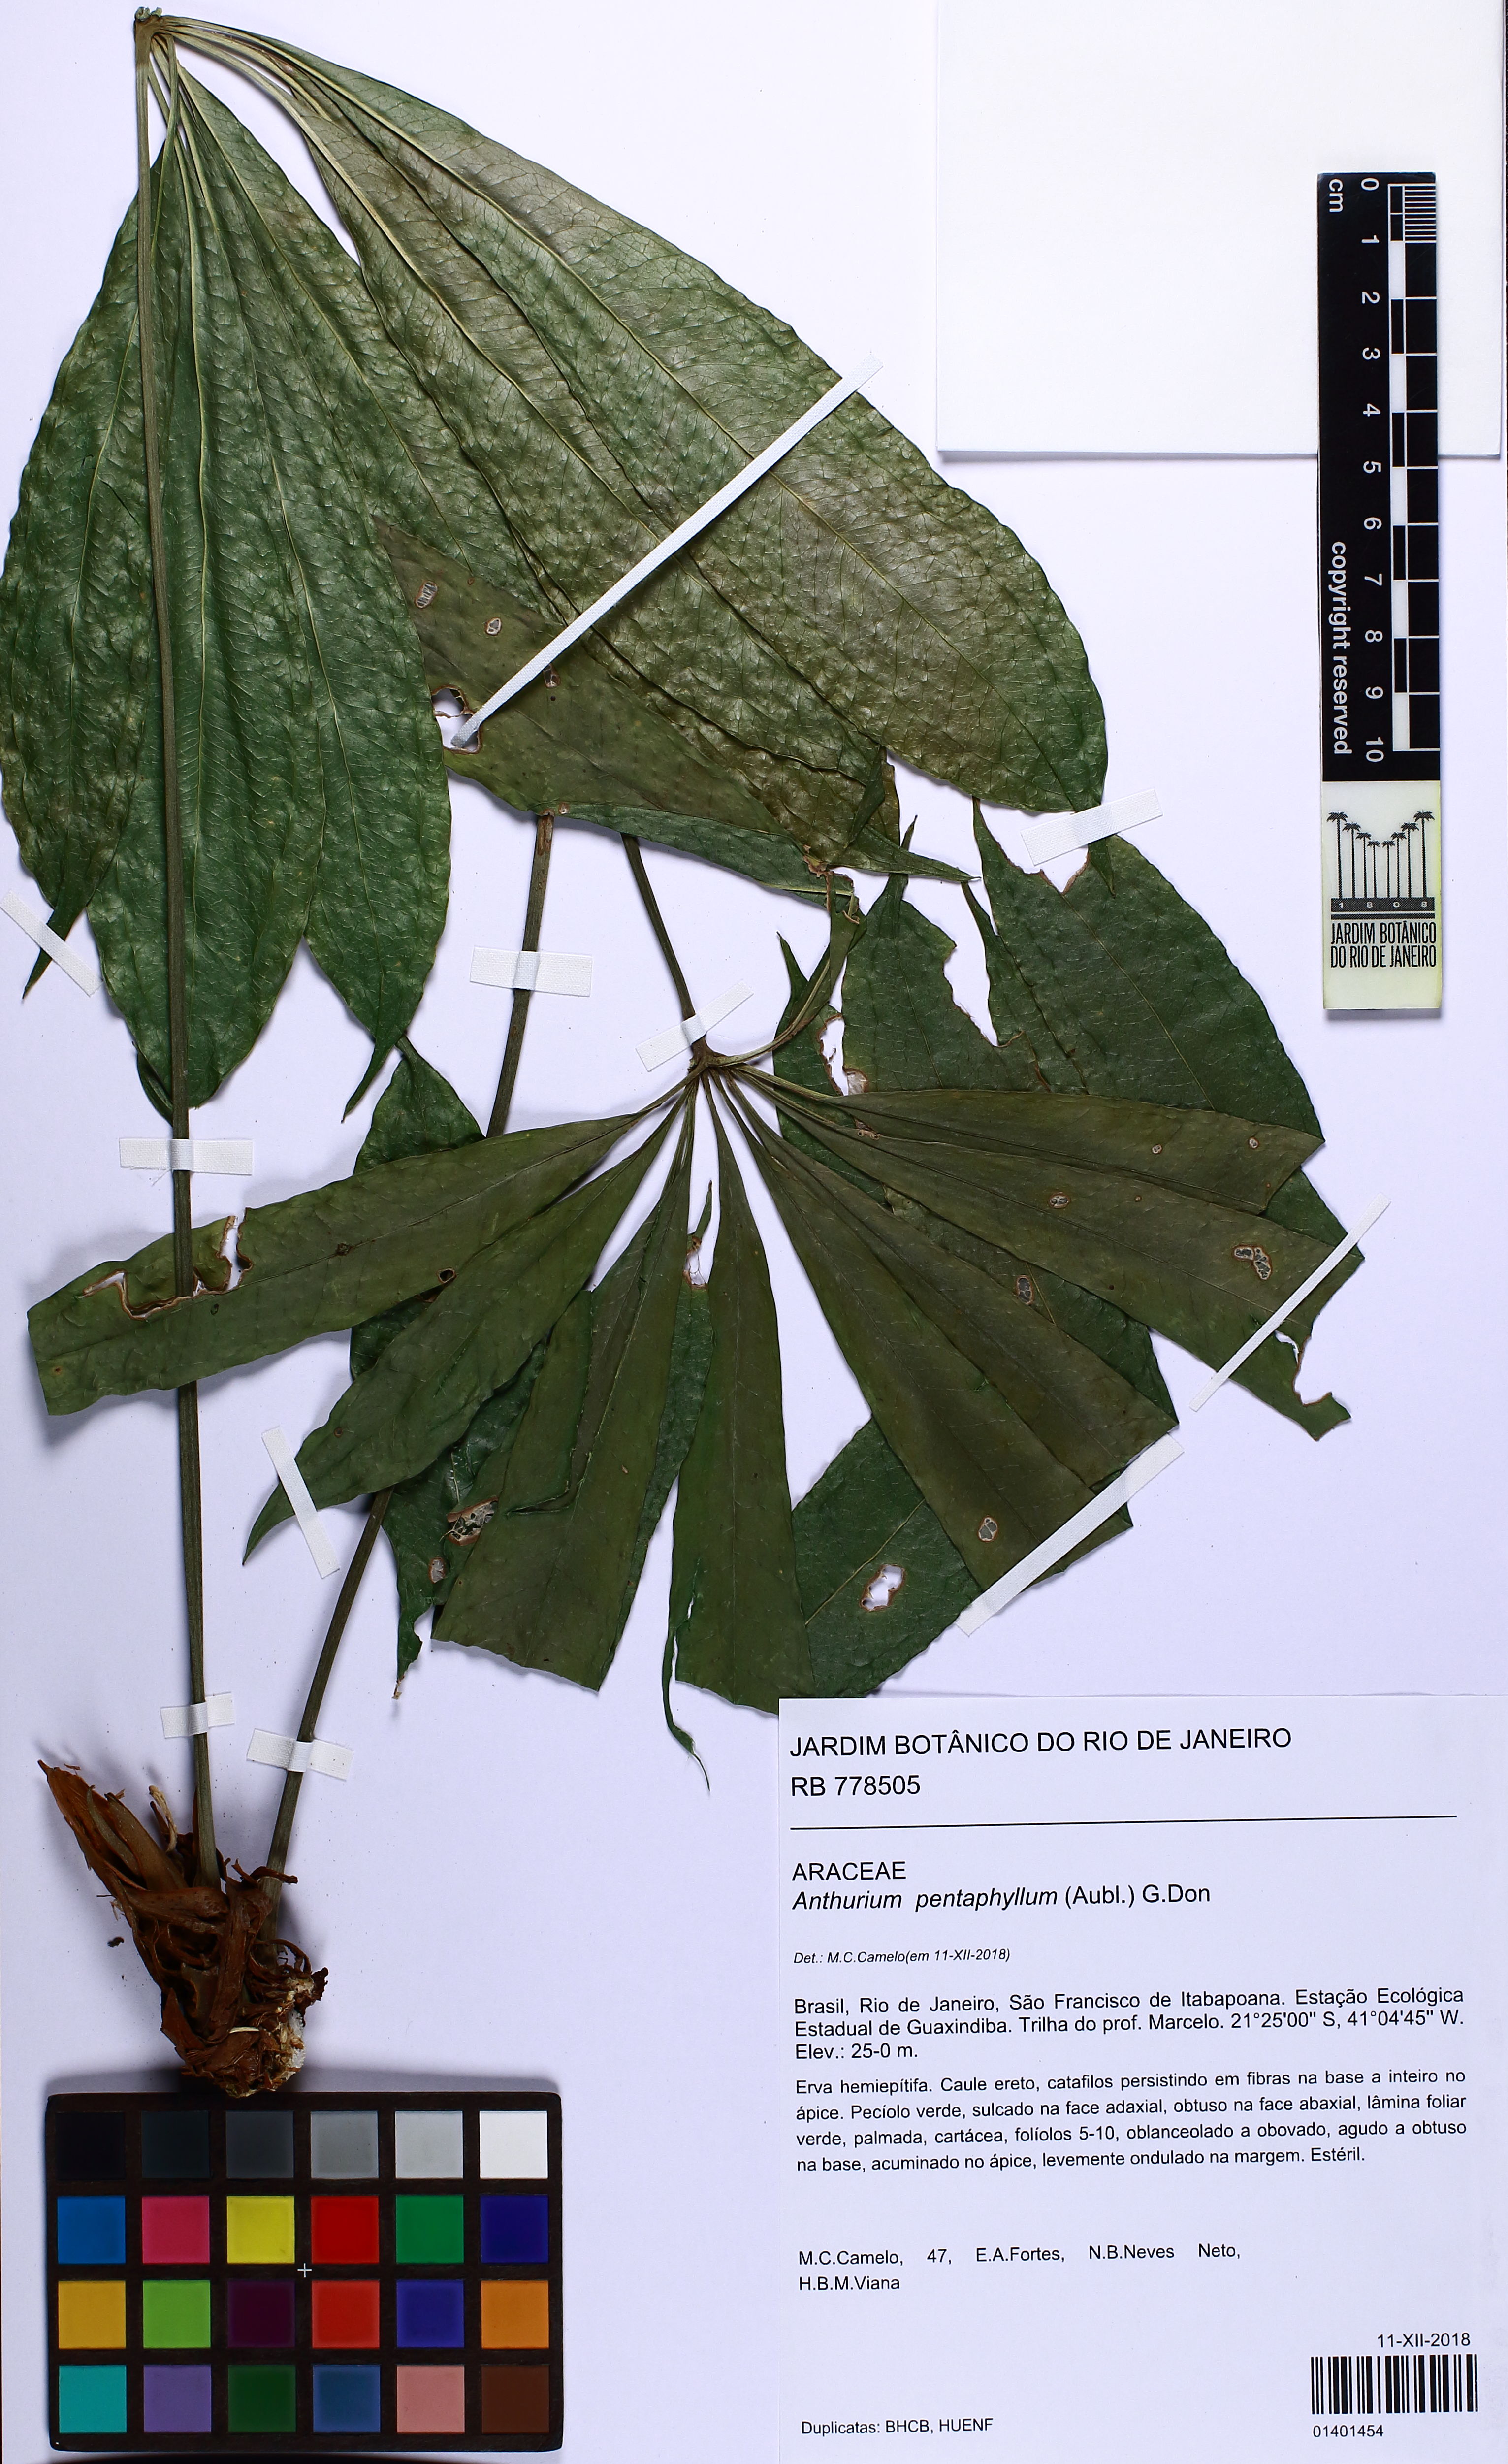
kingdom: Plantae
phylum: Tracheophyta
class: Liliopsida
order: Alismatales
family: Araceae
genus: Anthurium
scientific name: Anthurium pentaphyllum
